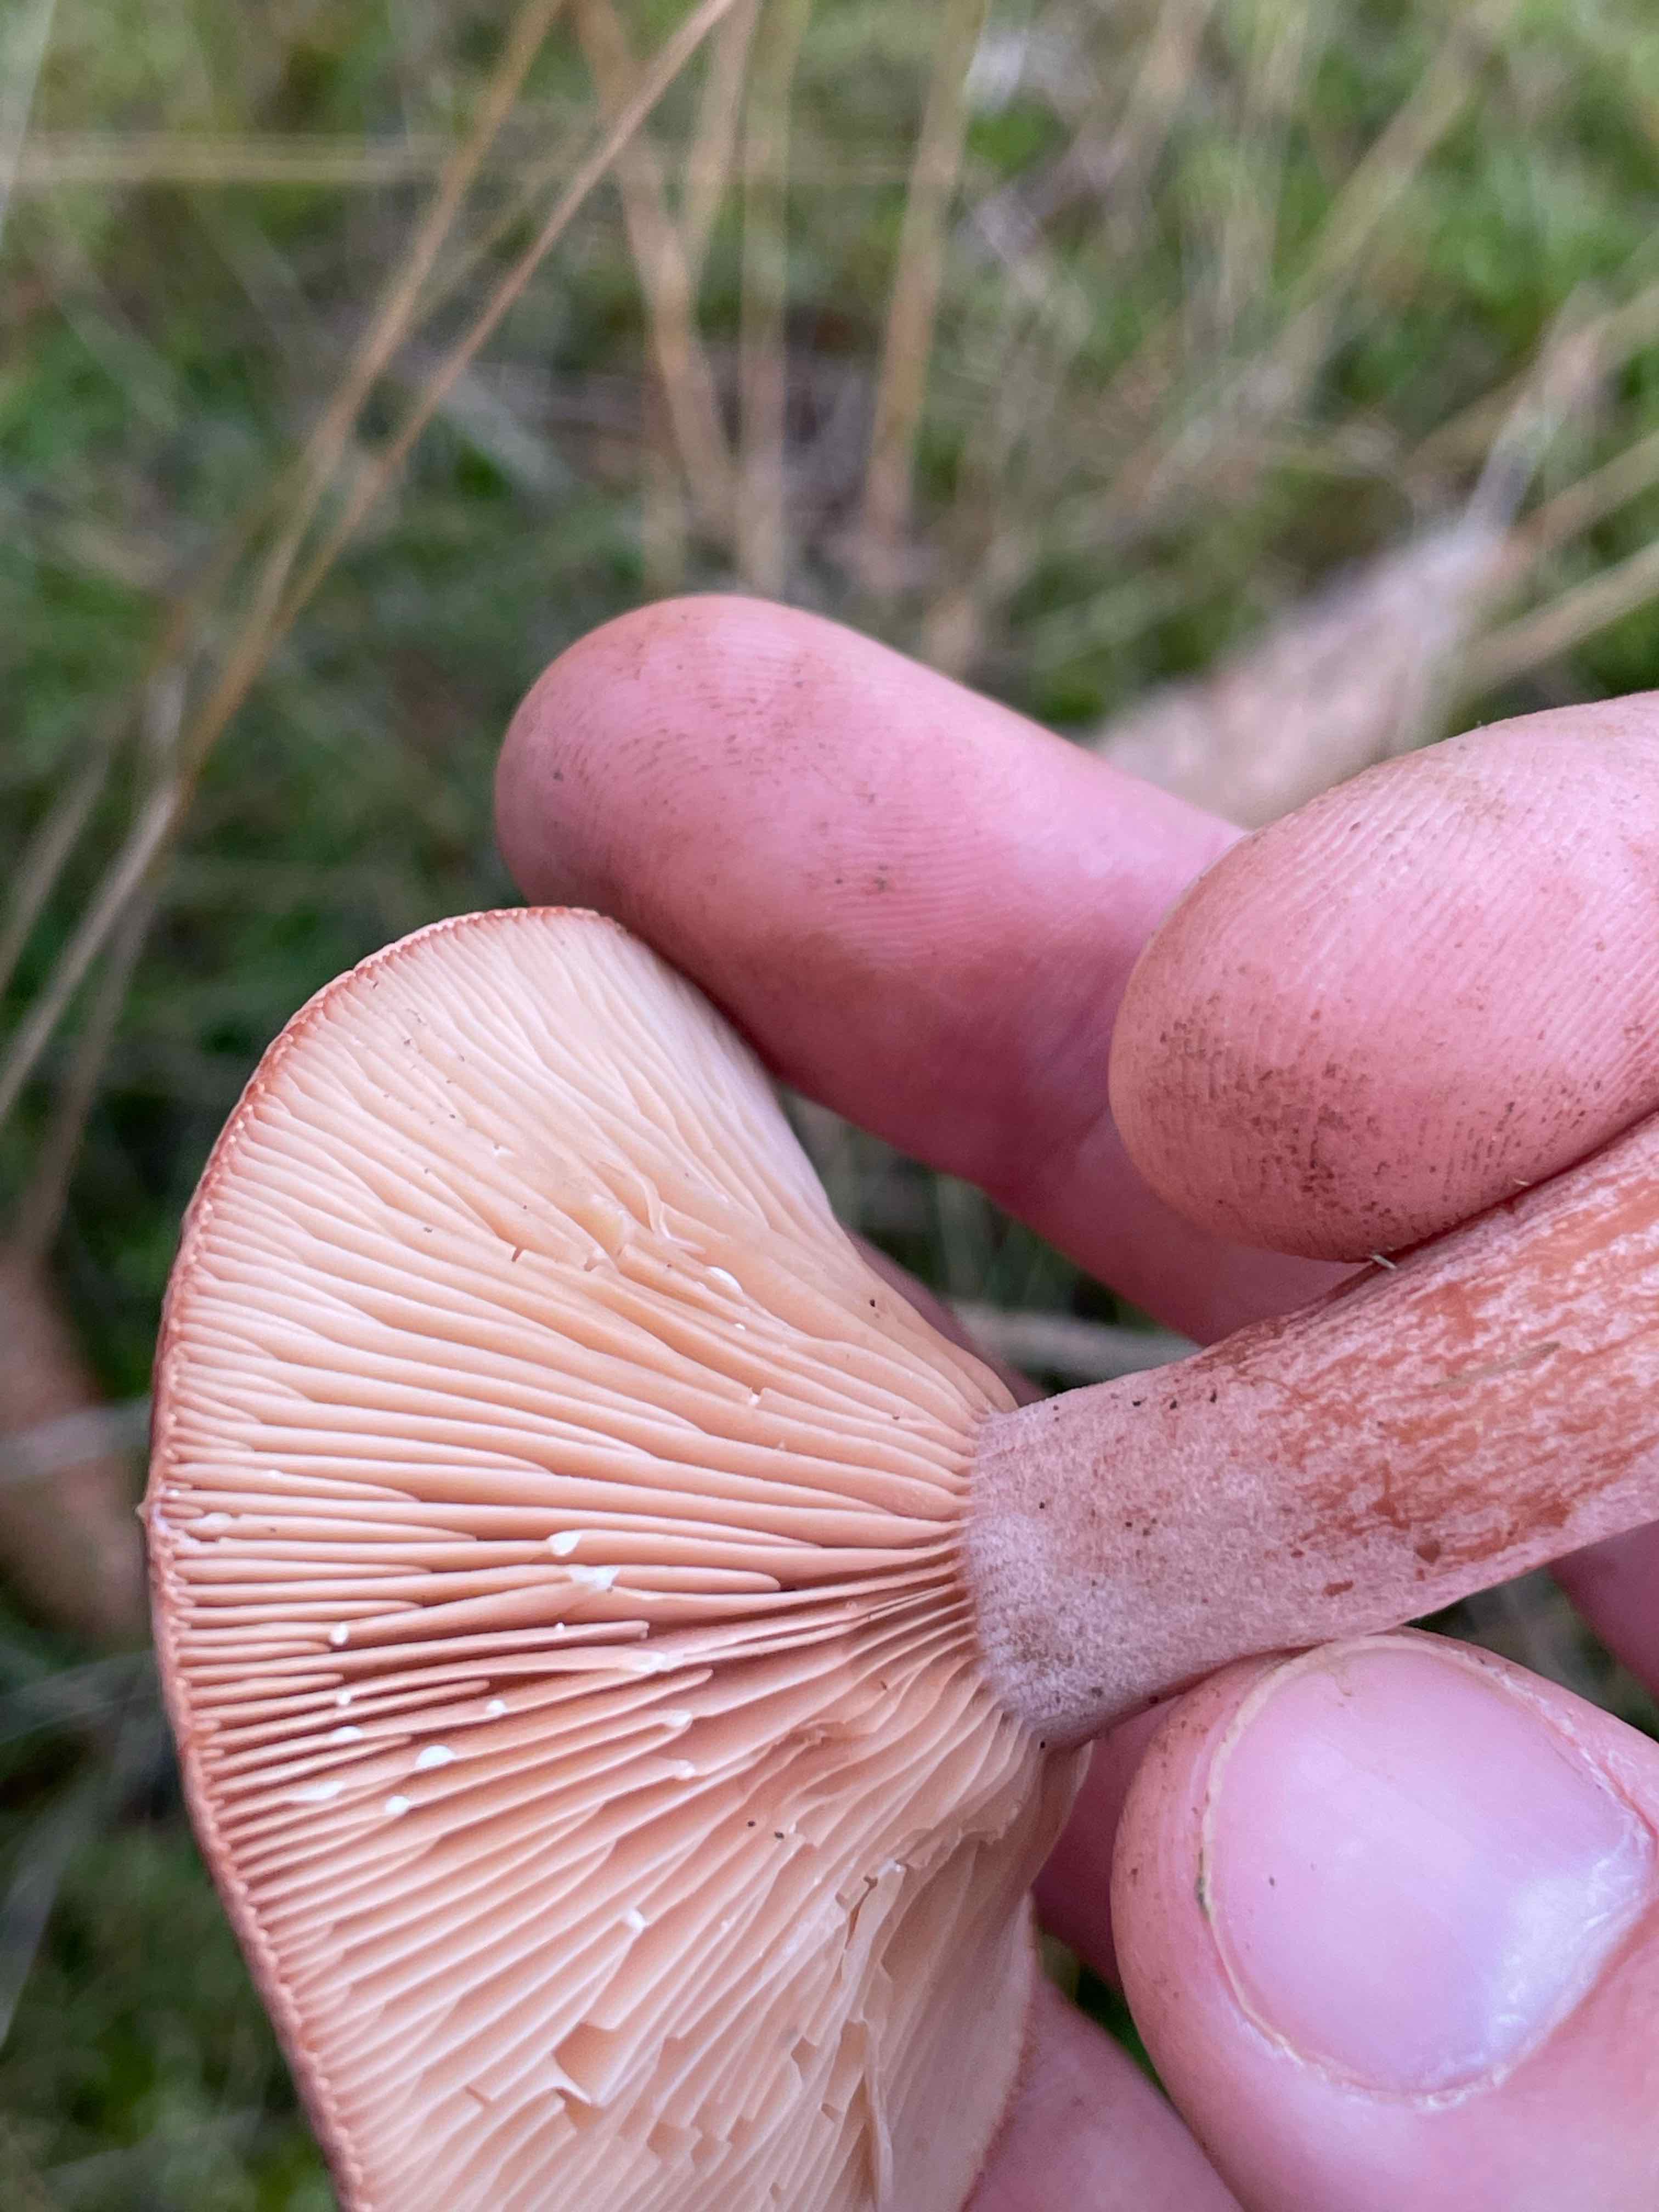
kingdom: Fungi
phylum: Basidiomycota
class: Agaricomycetes
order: Russulales
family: Russulaceae
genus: Lactarius
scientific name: Lactarius rufus
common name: rødbrun mælkehat
